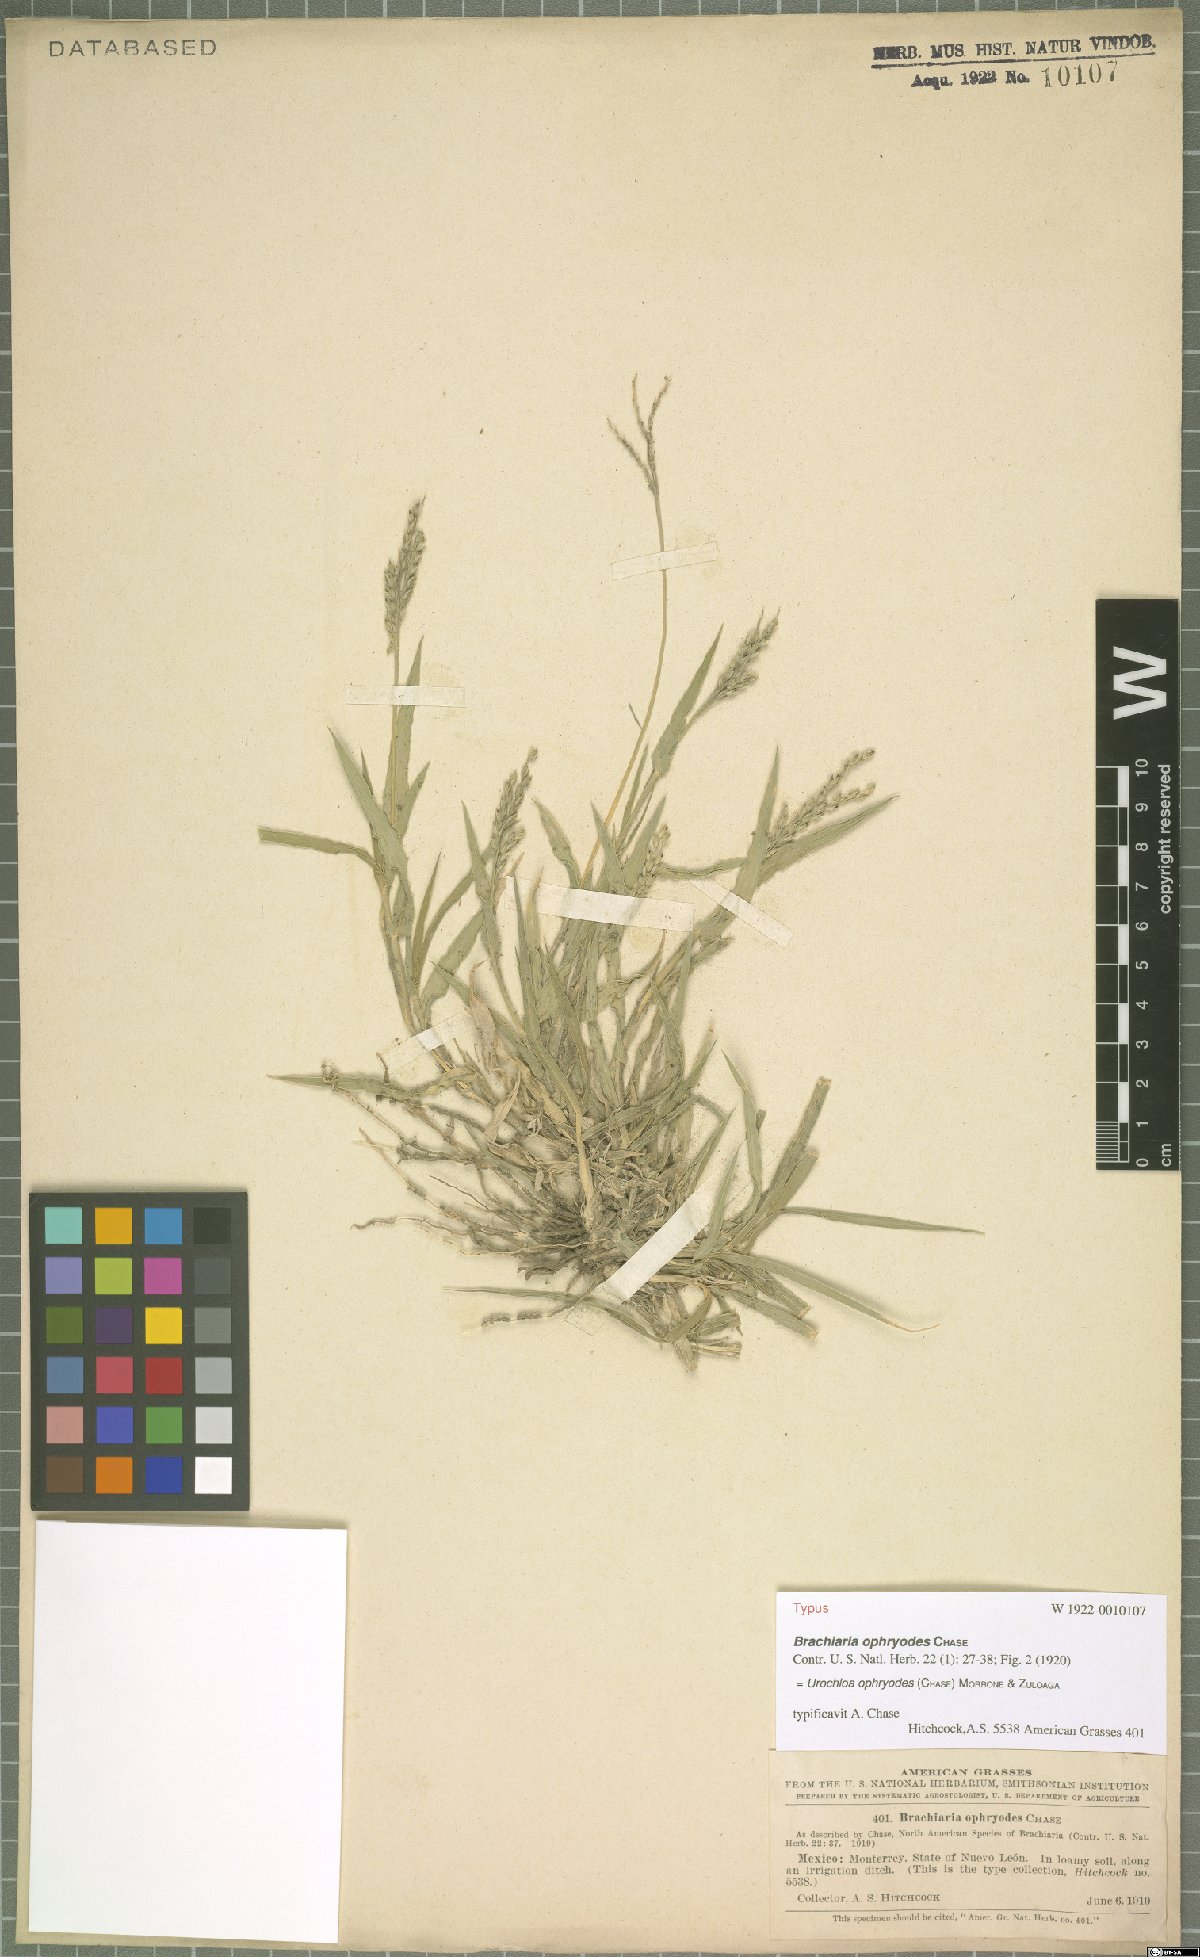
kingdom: Plantae
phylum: Tracheophyta
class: Liliopsida
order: Poales
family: Poaceae
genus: Urochloa
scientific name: Urochloa ophryodes
